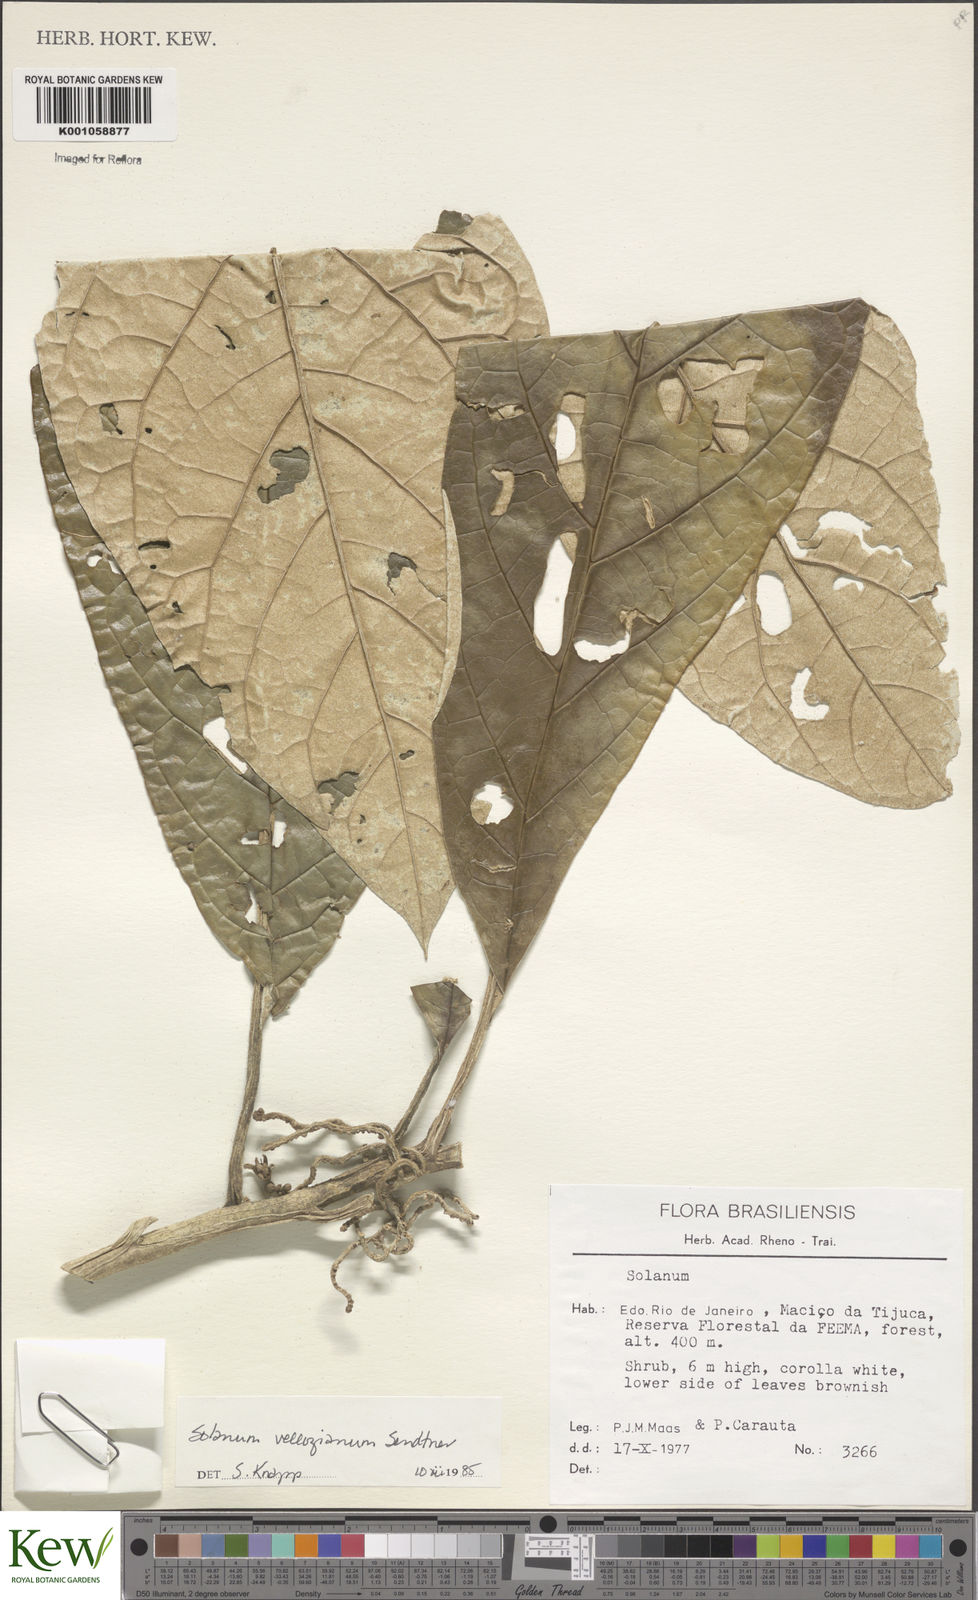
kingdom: Plantae
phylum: Tracheophyta
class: Magnoliopsida
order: Solanales
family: Solanaceae
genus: Solanum
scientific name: Solanum vellozianum
